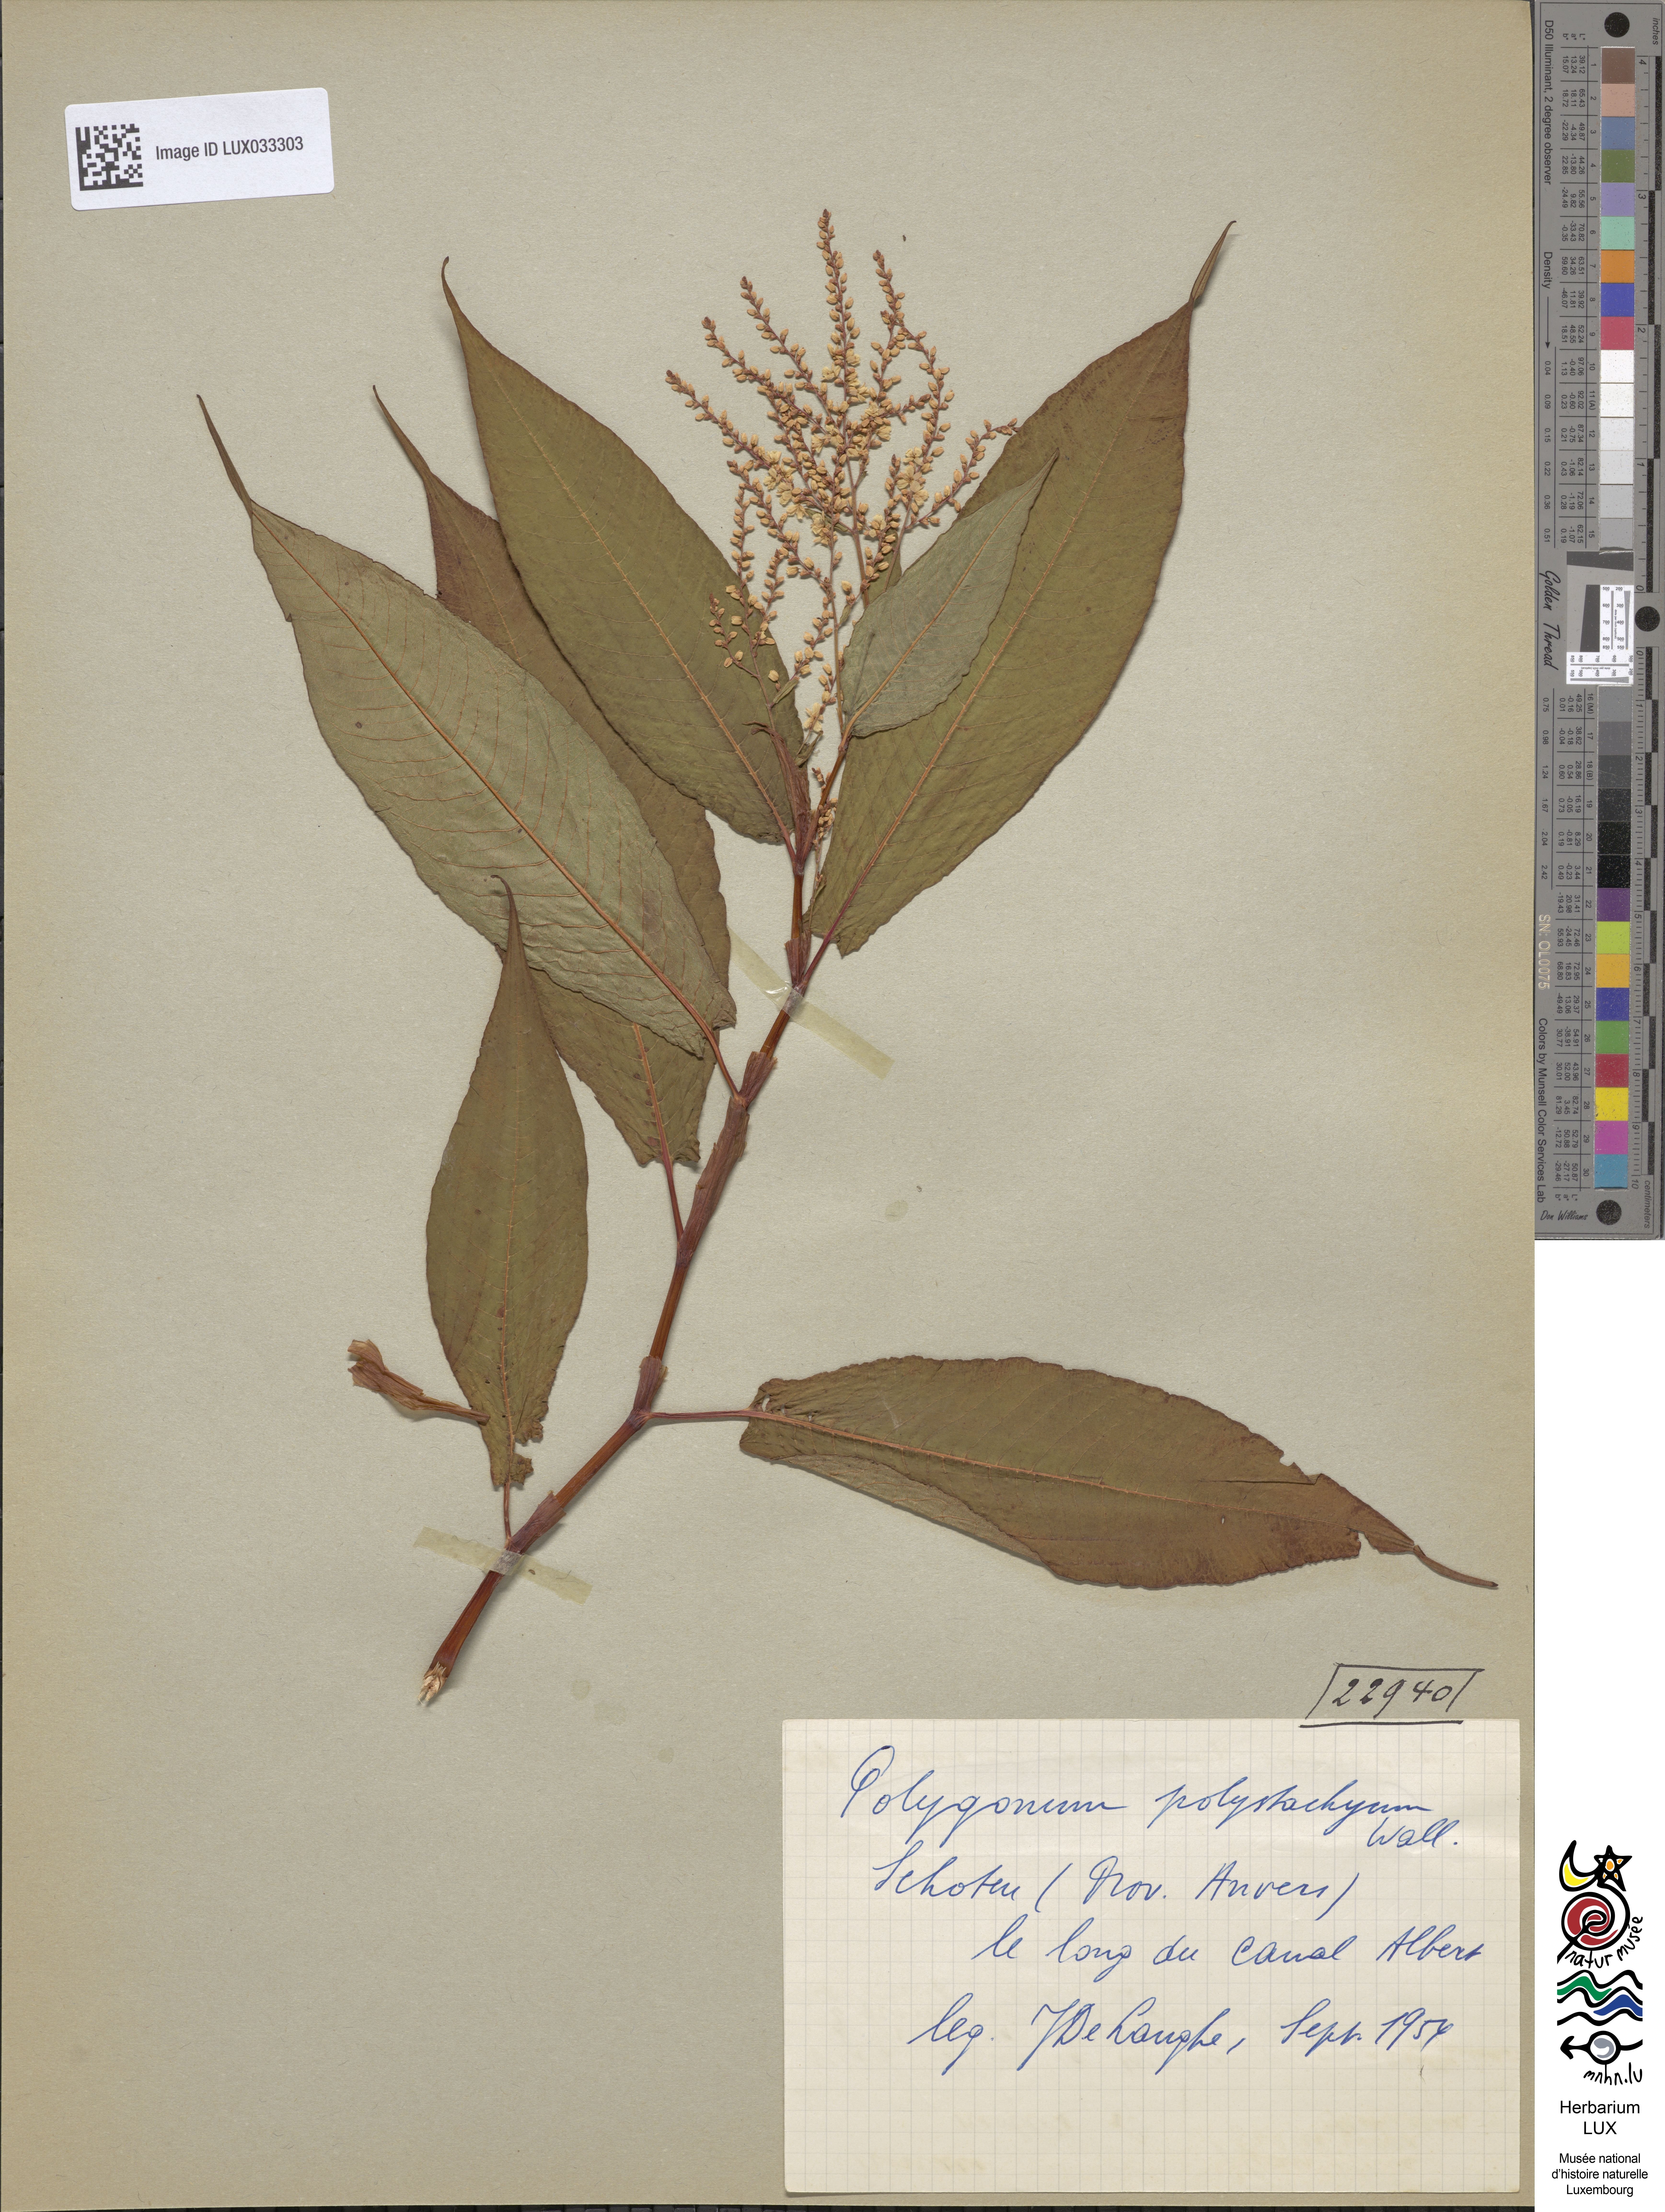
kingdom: Plantae
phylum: Tracheophyta
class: Magnoliopsida
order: Caryophyllales
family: Polygonaceae
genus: Koenigia
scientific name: Koenigia polystachya
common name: Himalayan knotweed
